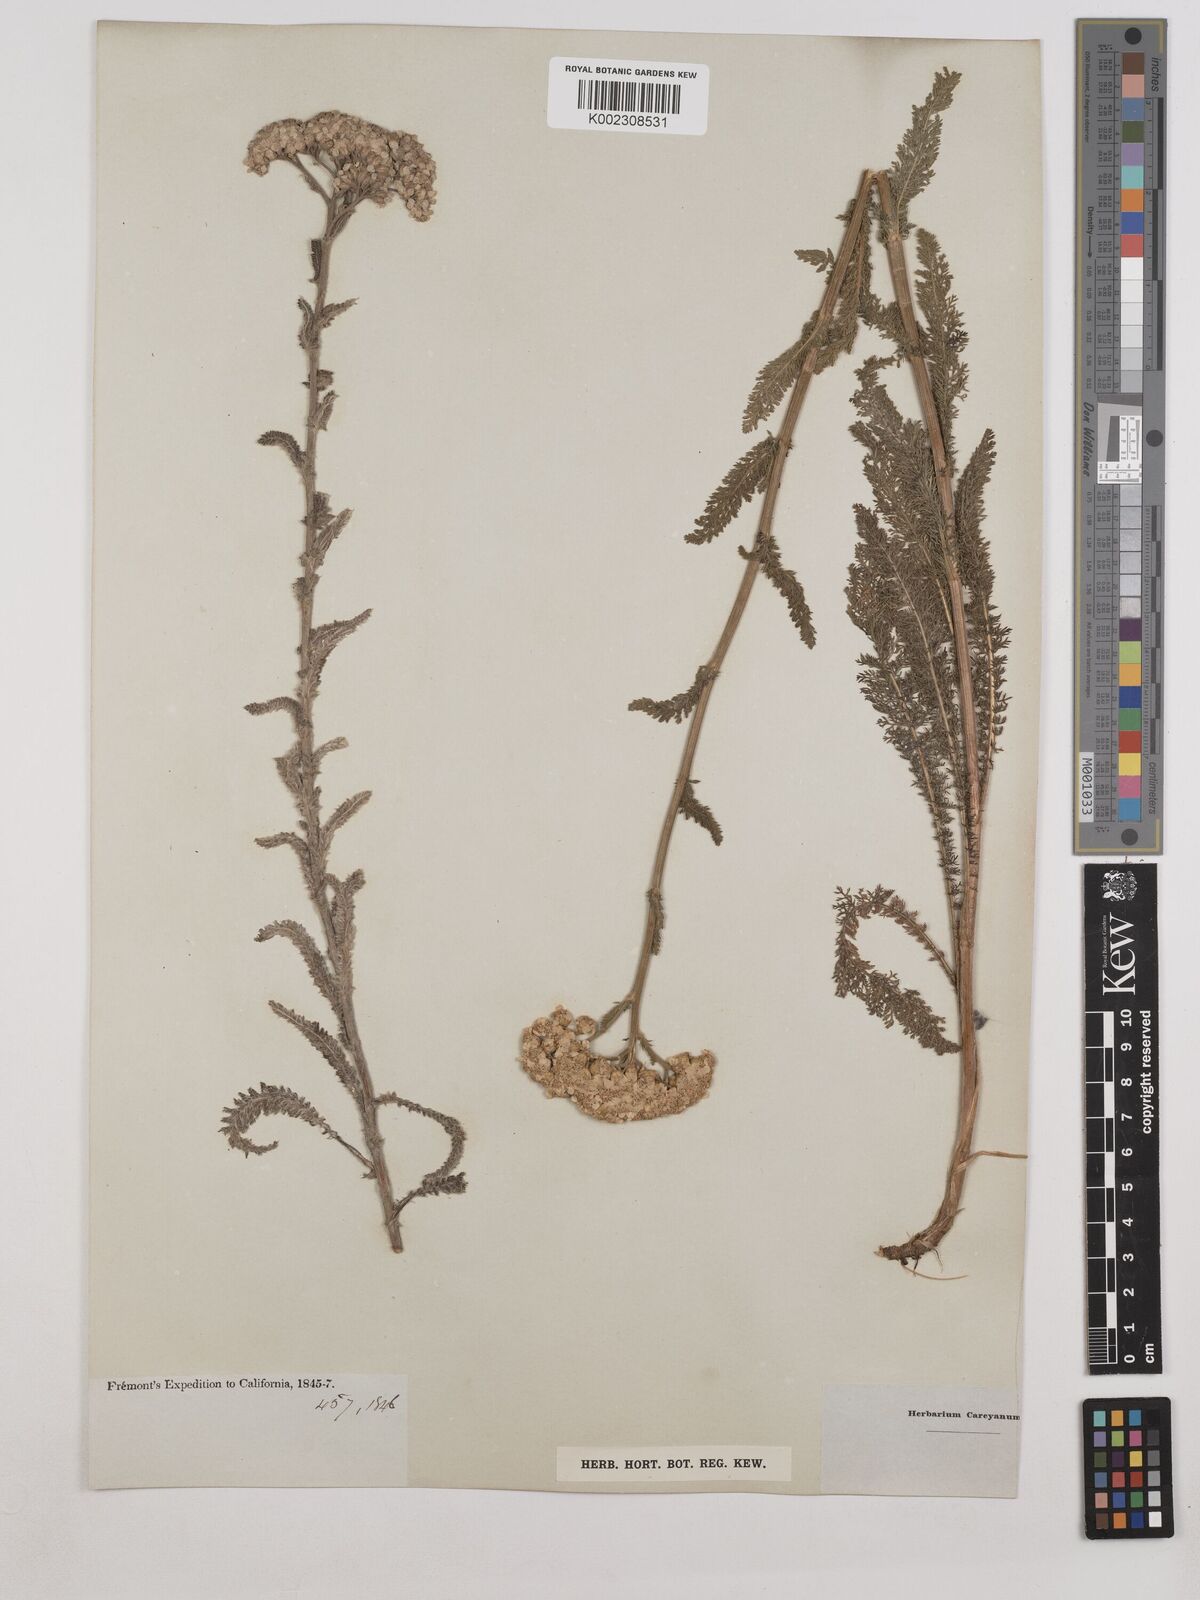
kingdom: Plantae
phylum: Tracheophyta
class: Magnoliopsida
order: Asterales
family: Asteraceae
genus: Achillea
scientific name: Achillea
